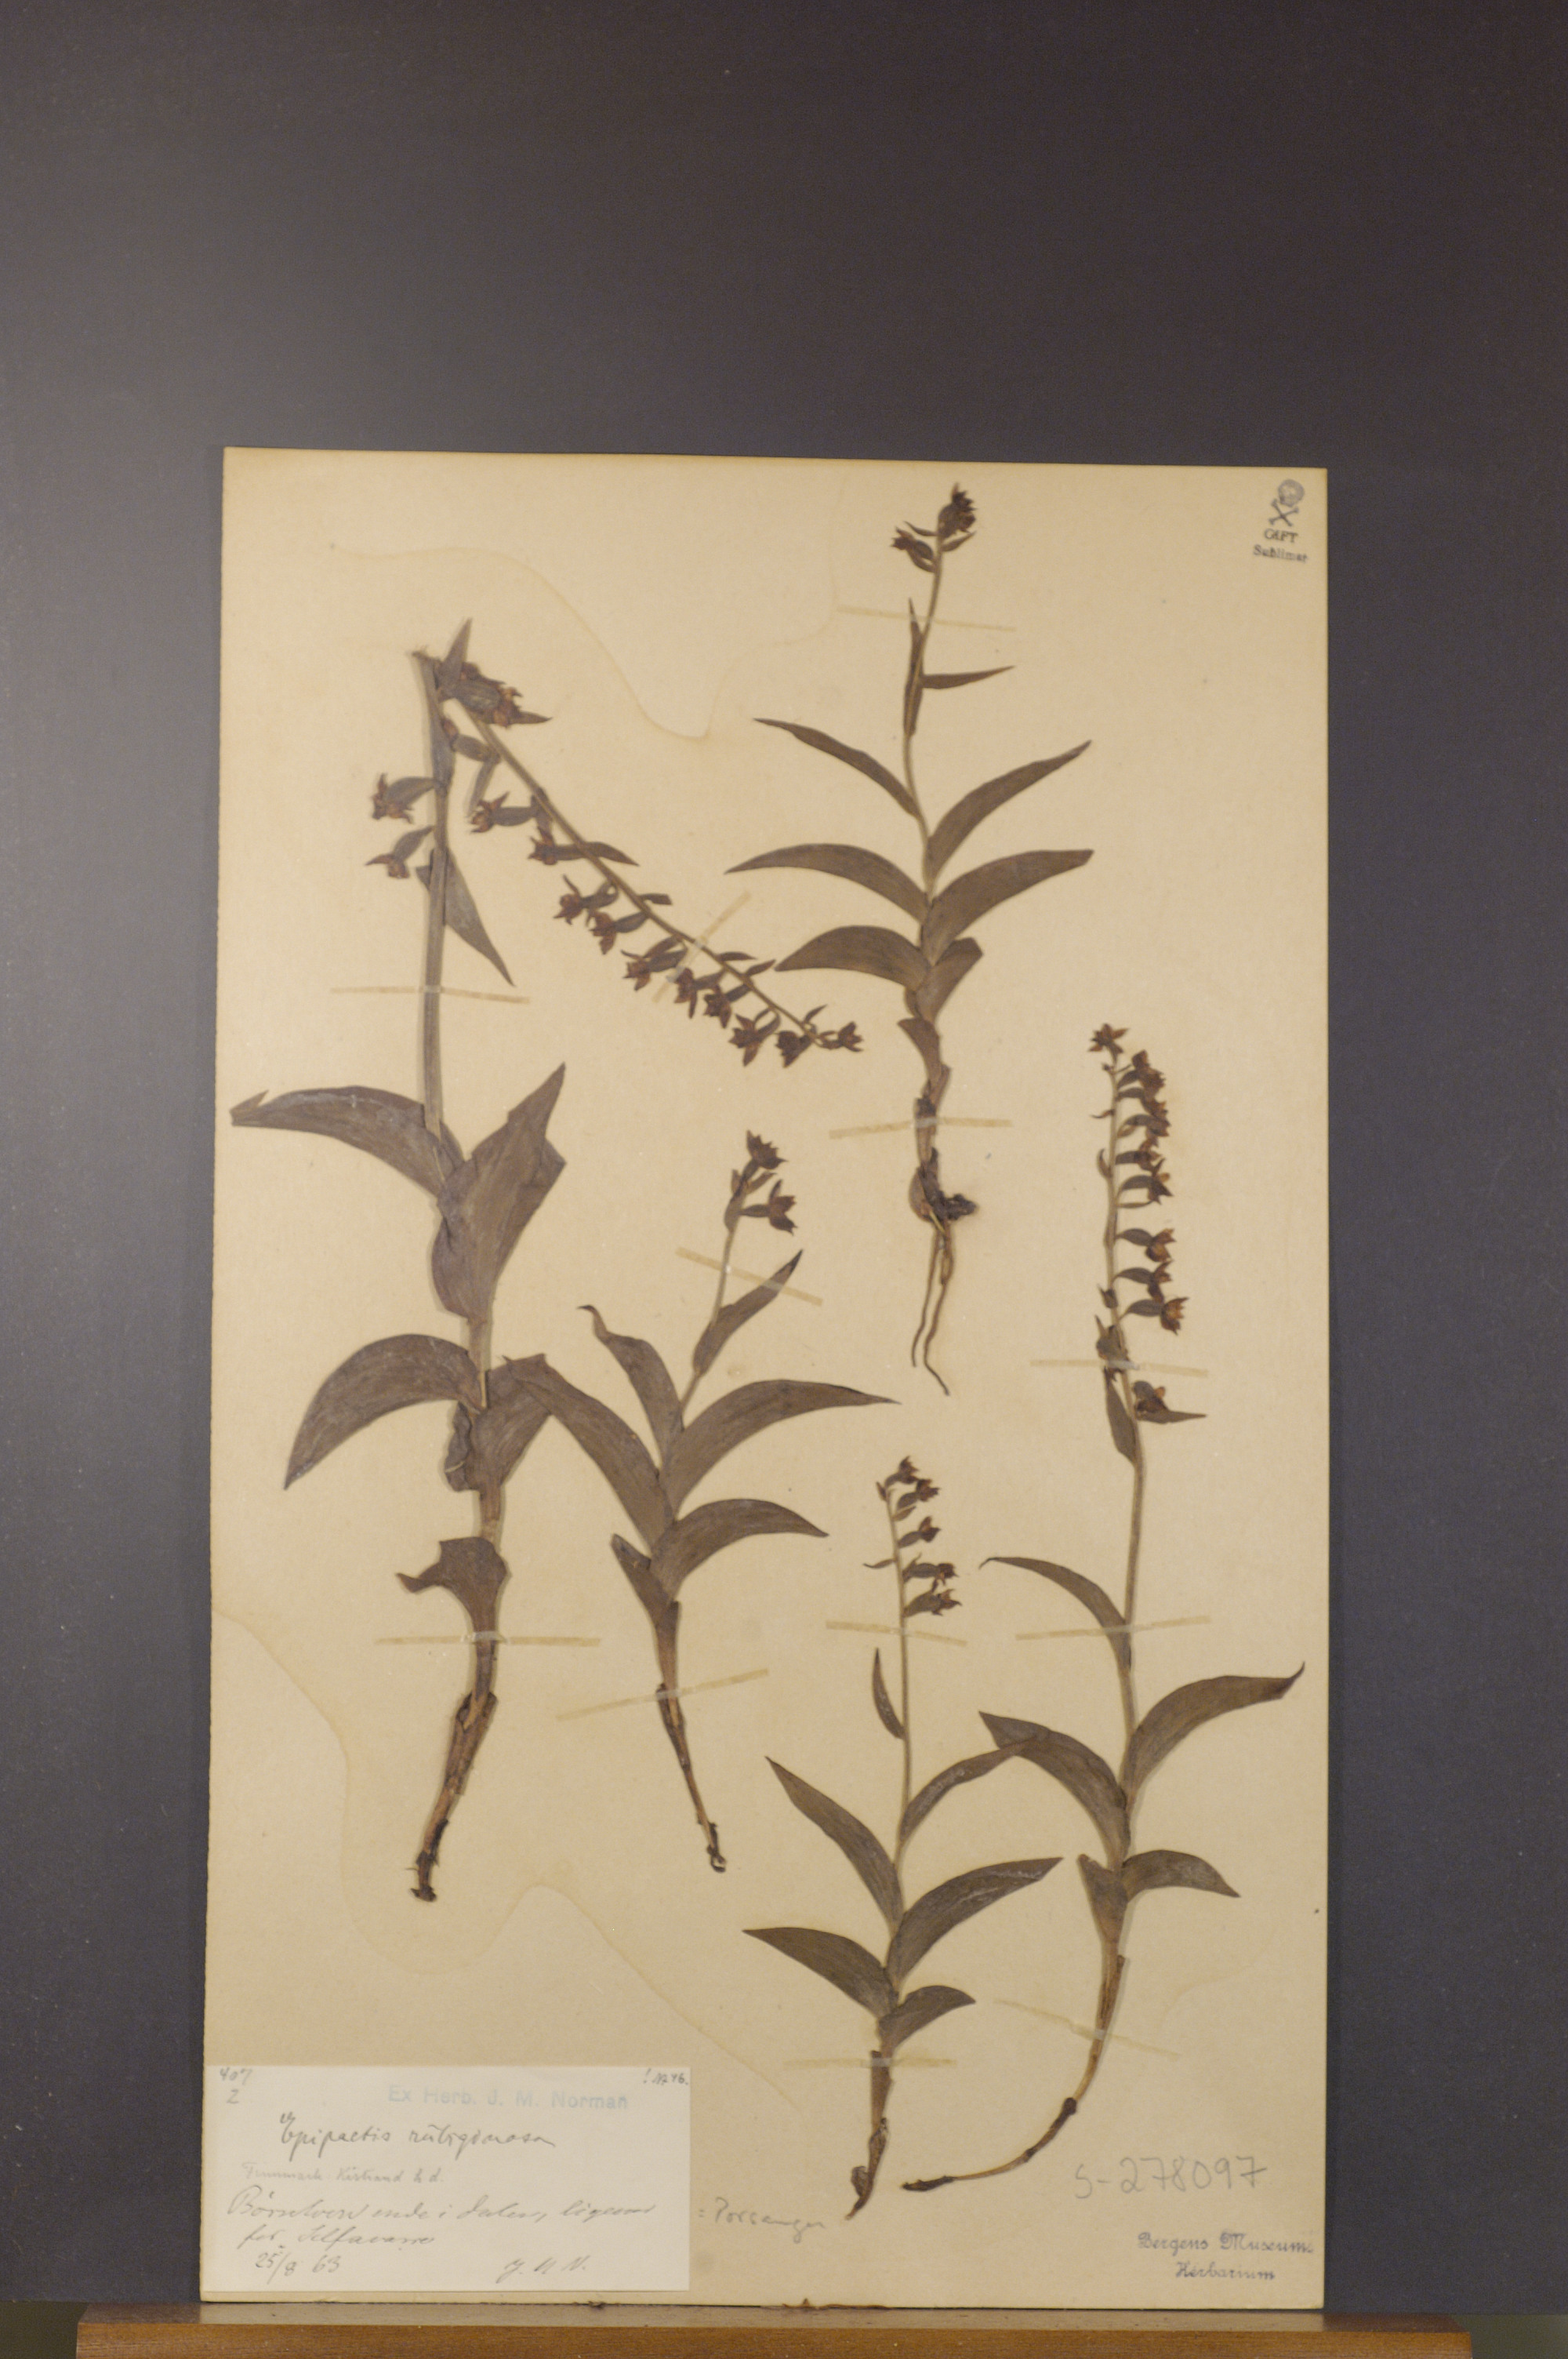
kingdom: Plantae
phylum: Tracheophyta
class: Liliopsida
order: Asparagales
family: Orchidaceae
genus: Epipactis
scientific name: Epipactis atrorubens
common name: Dark-red helleborine
